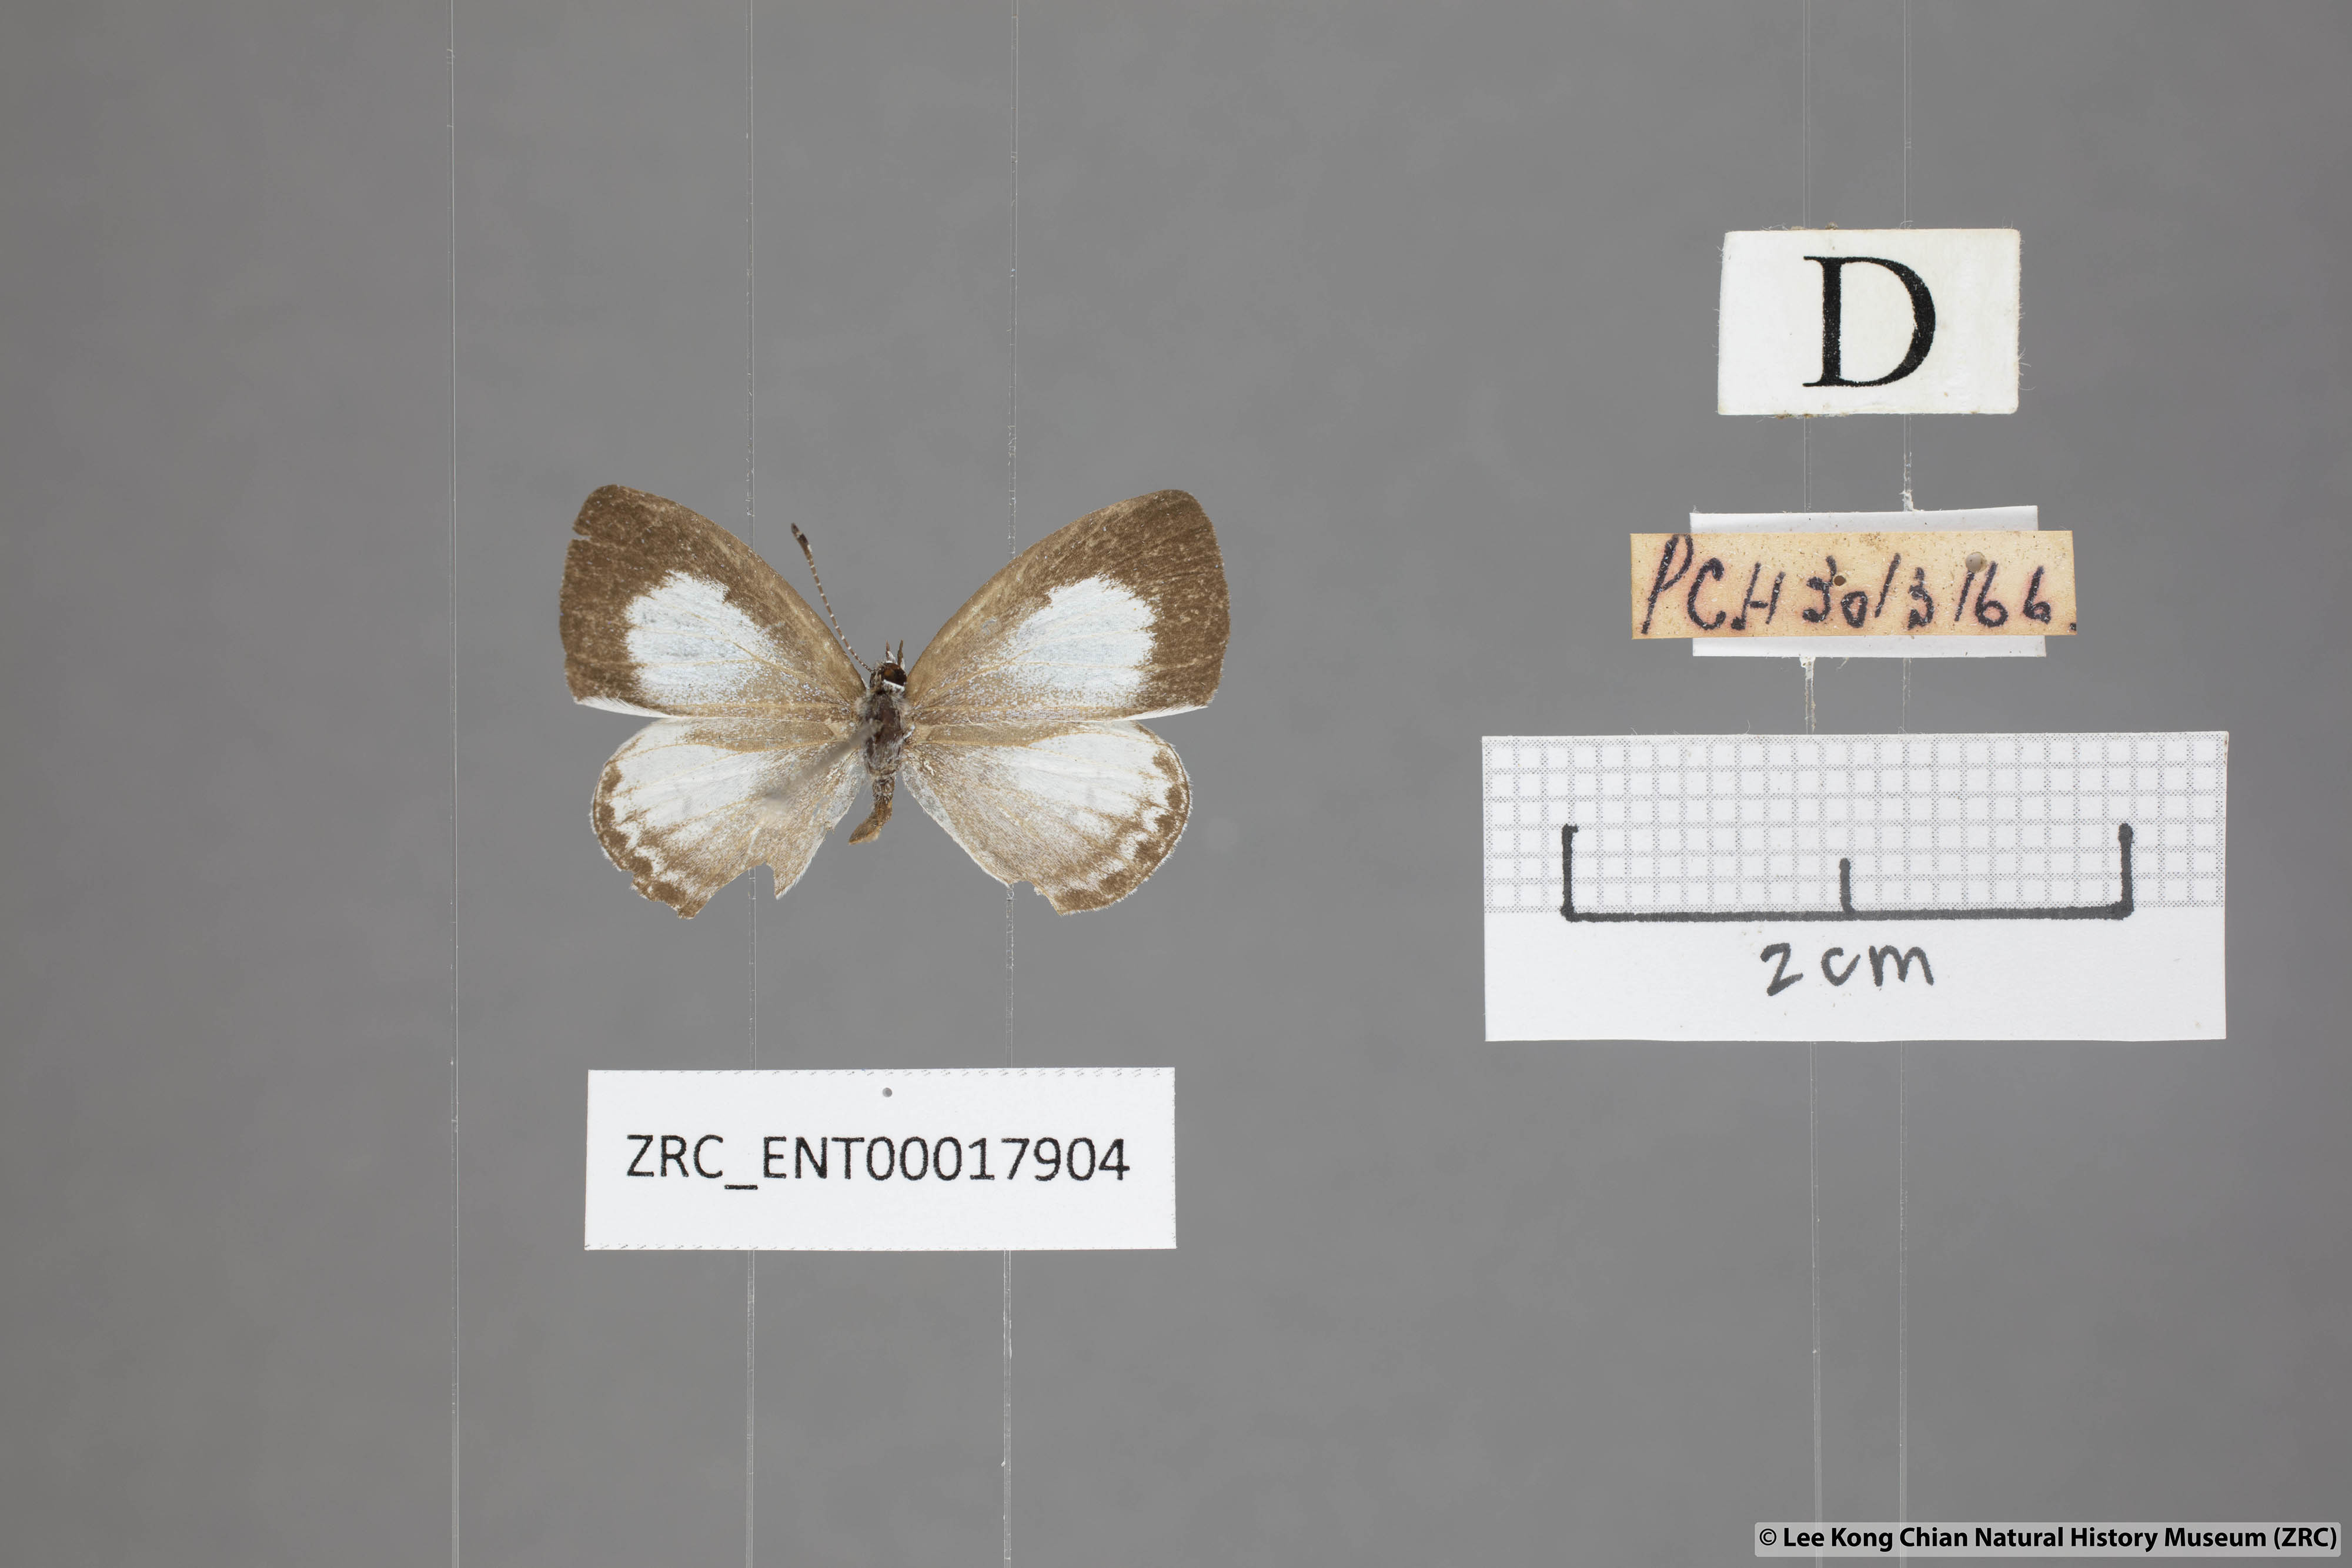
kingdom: Animalia
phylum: Arthropoda
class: Insecta
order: Lepidoptera
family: Lycaenidae
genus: Oreolyce
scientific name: Oreolyce
